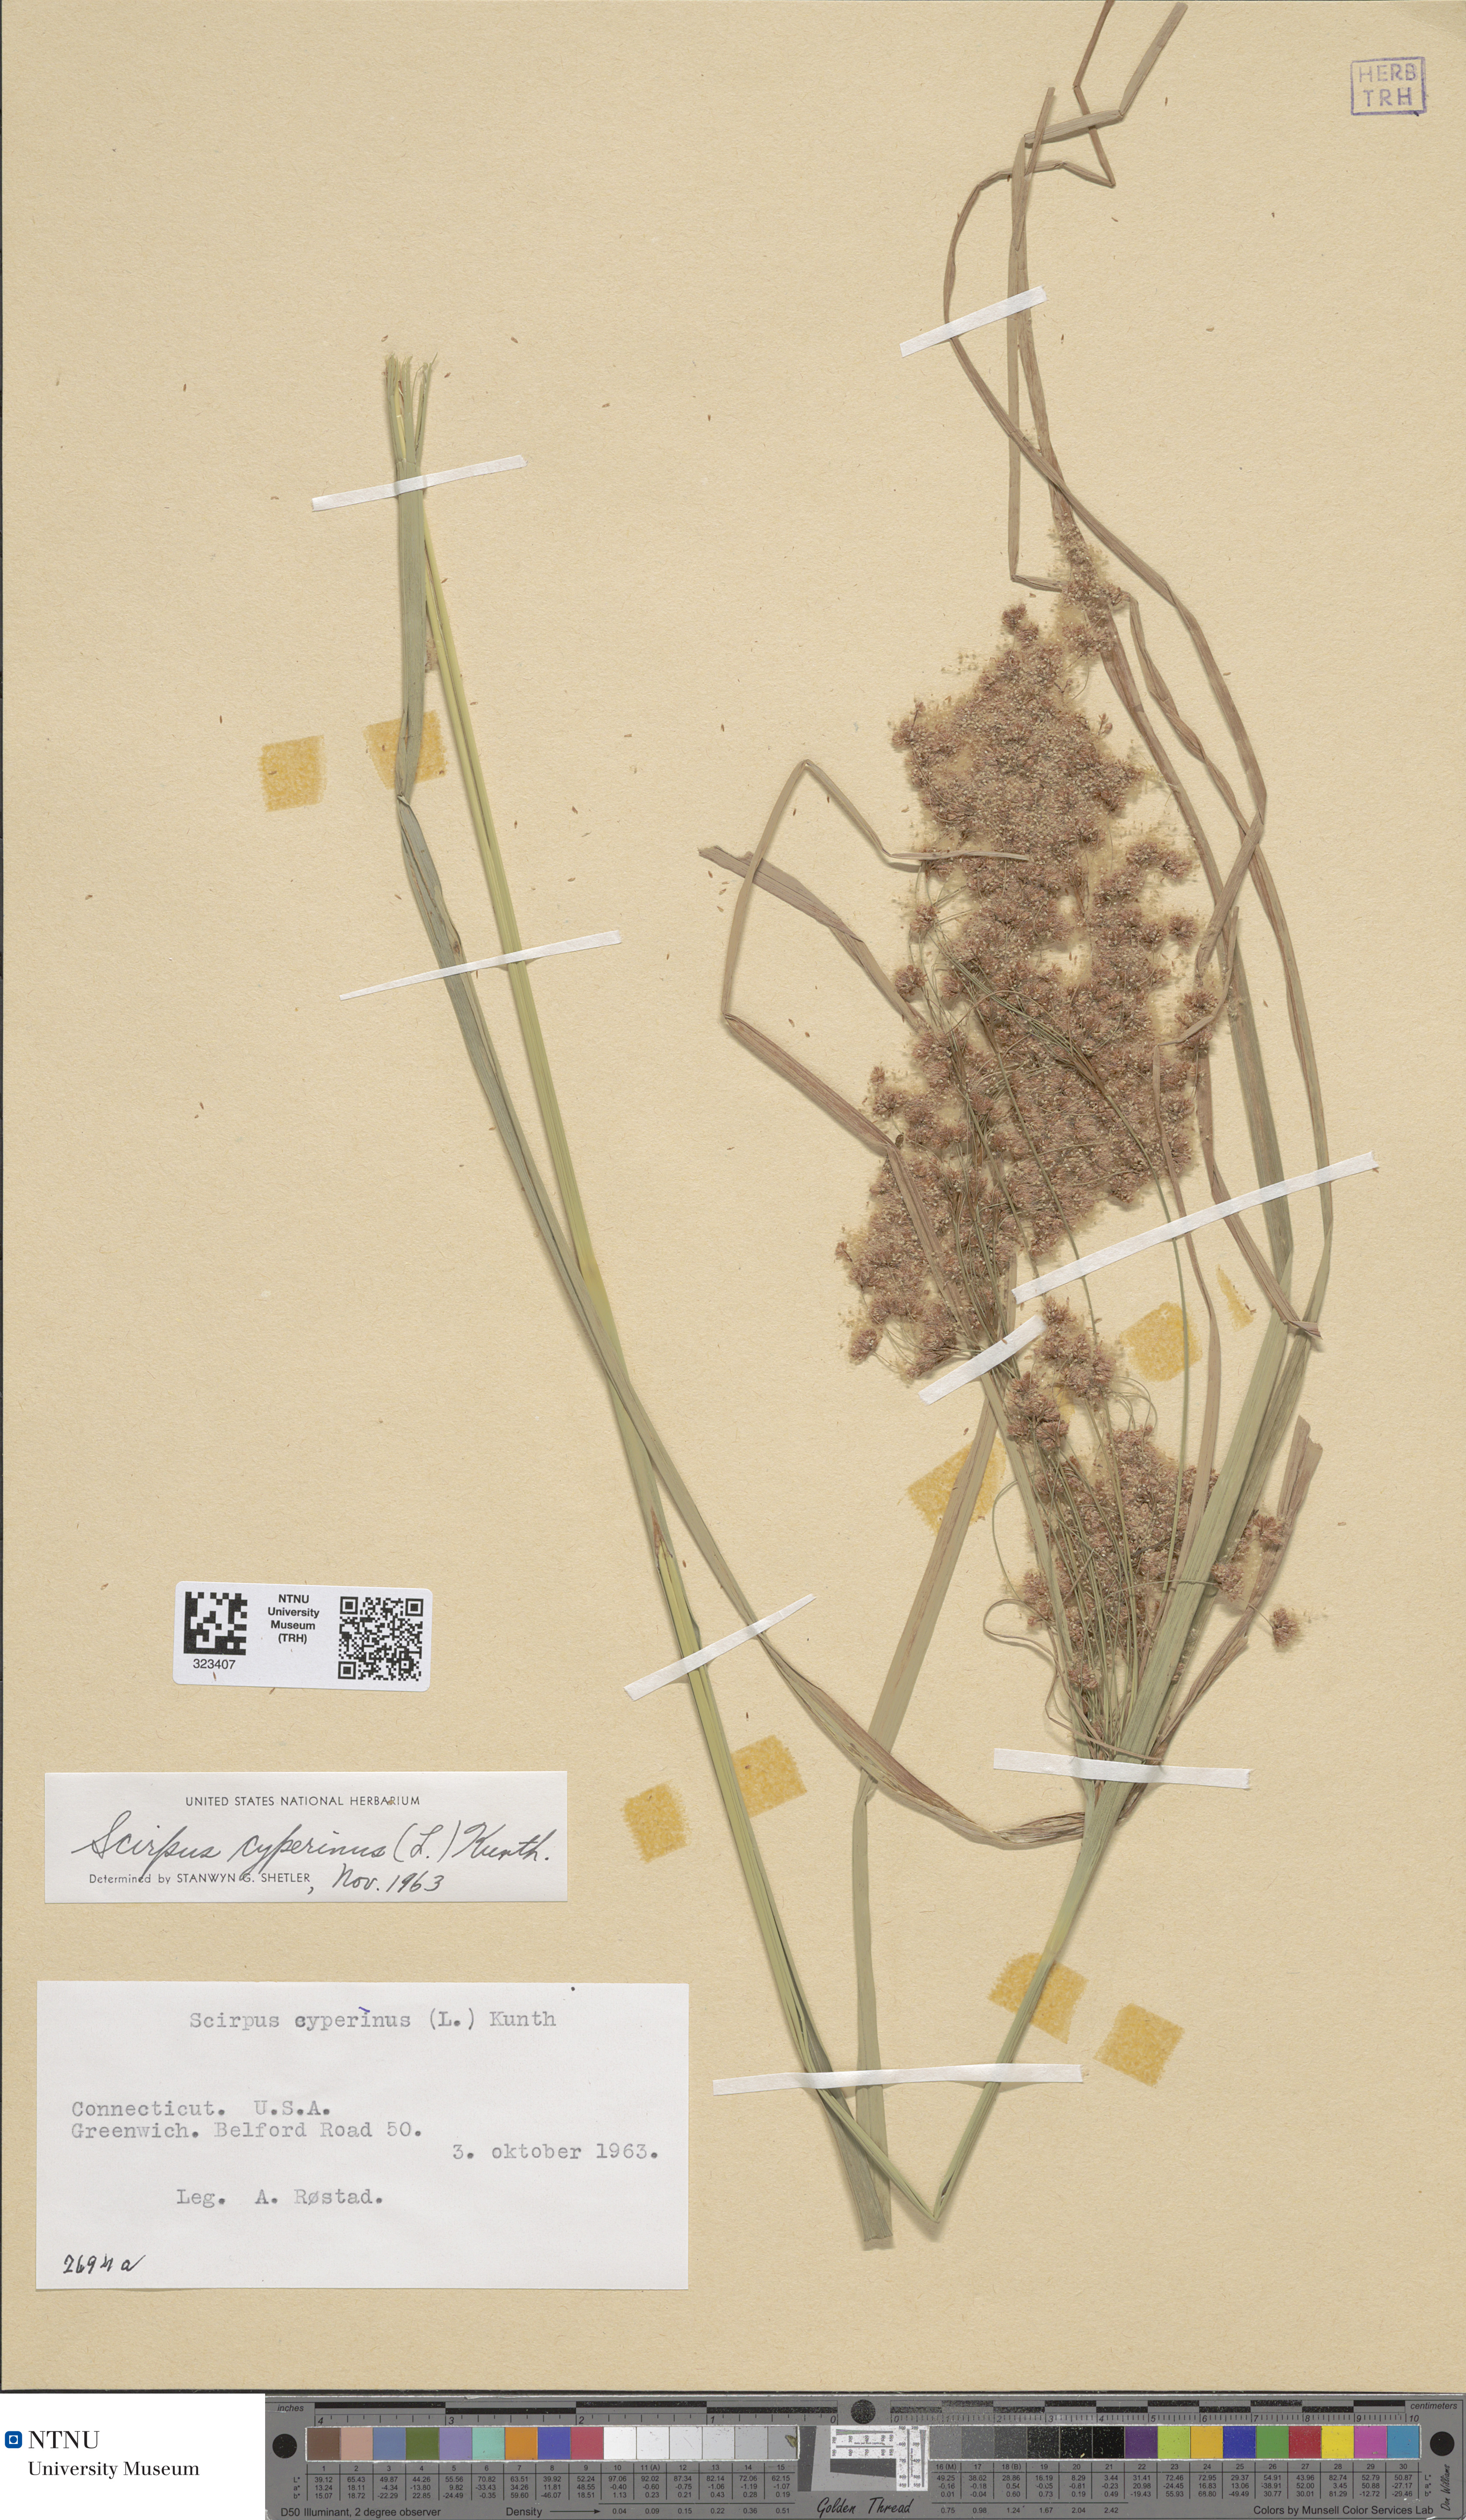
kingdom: Plantae
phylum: Tracheophyta
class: Liliopsida
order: Poales
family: Cyperaceae
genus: Scirpus
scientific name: Scirpus cyperinus
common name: Black-sheathed bulrush
